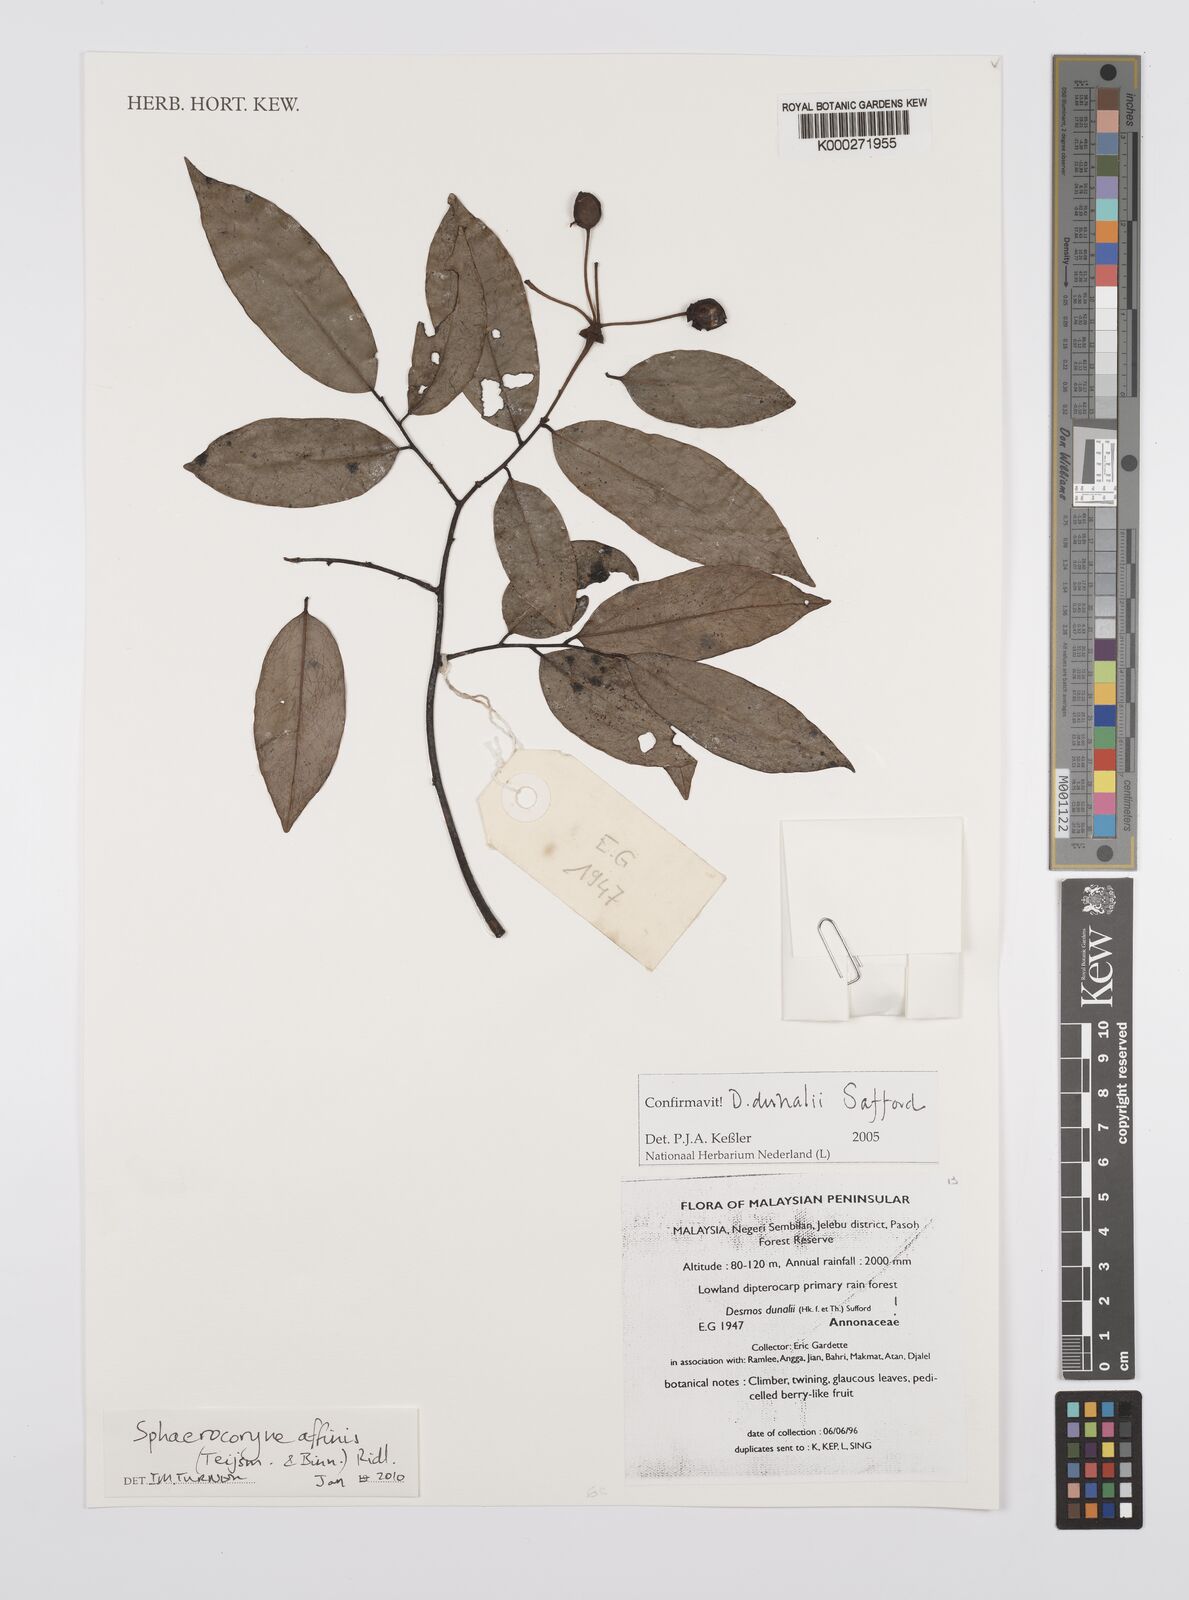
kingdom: Plantae
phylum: Tracheophyta
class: Magnoliopsida
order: Magnoliales
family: Annonaceae
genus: Desmos
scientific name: Desmos dunalii
